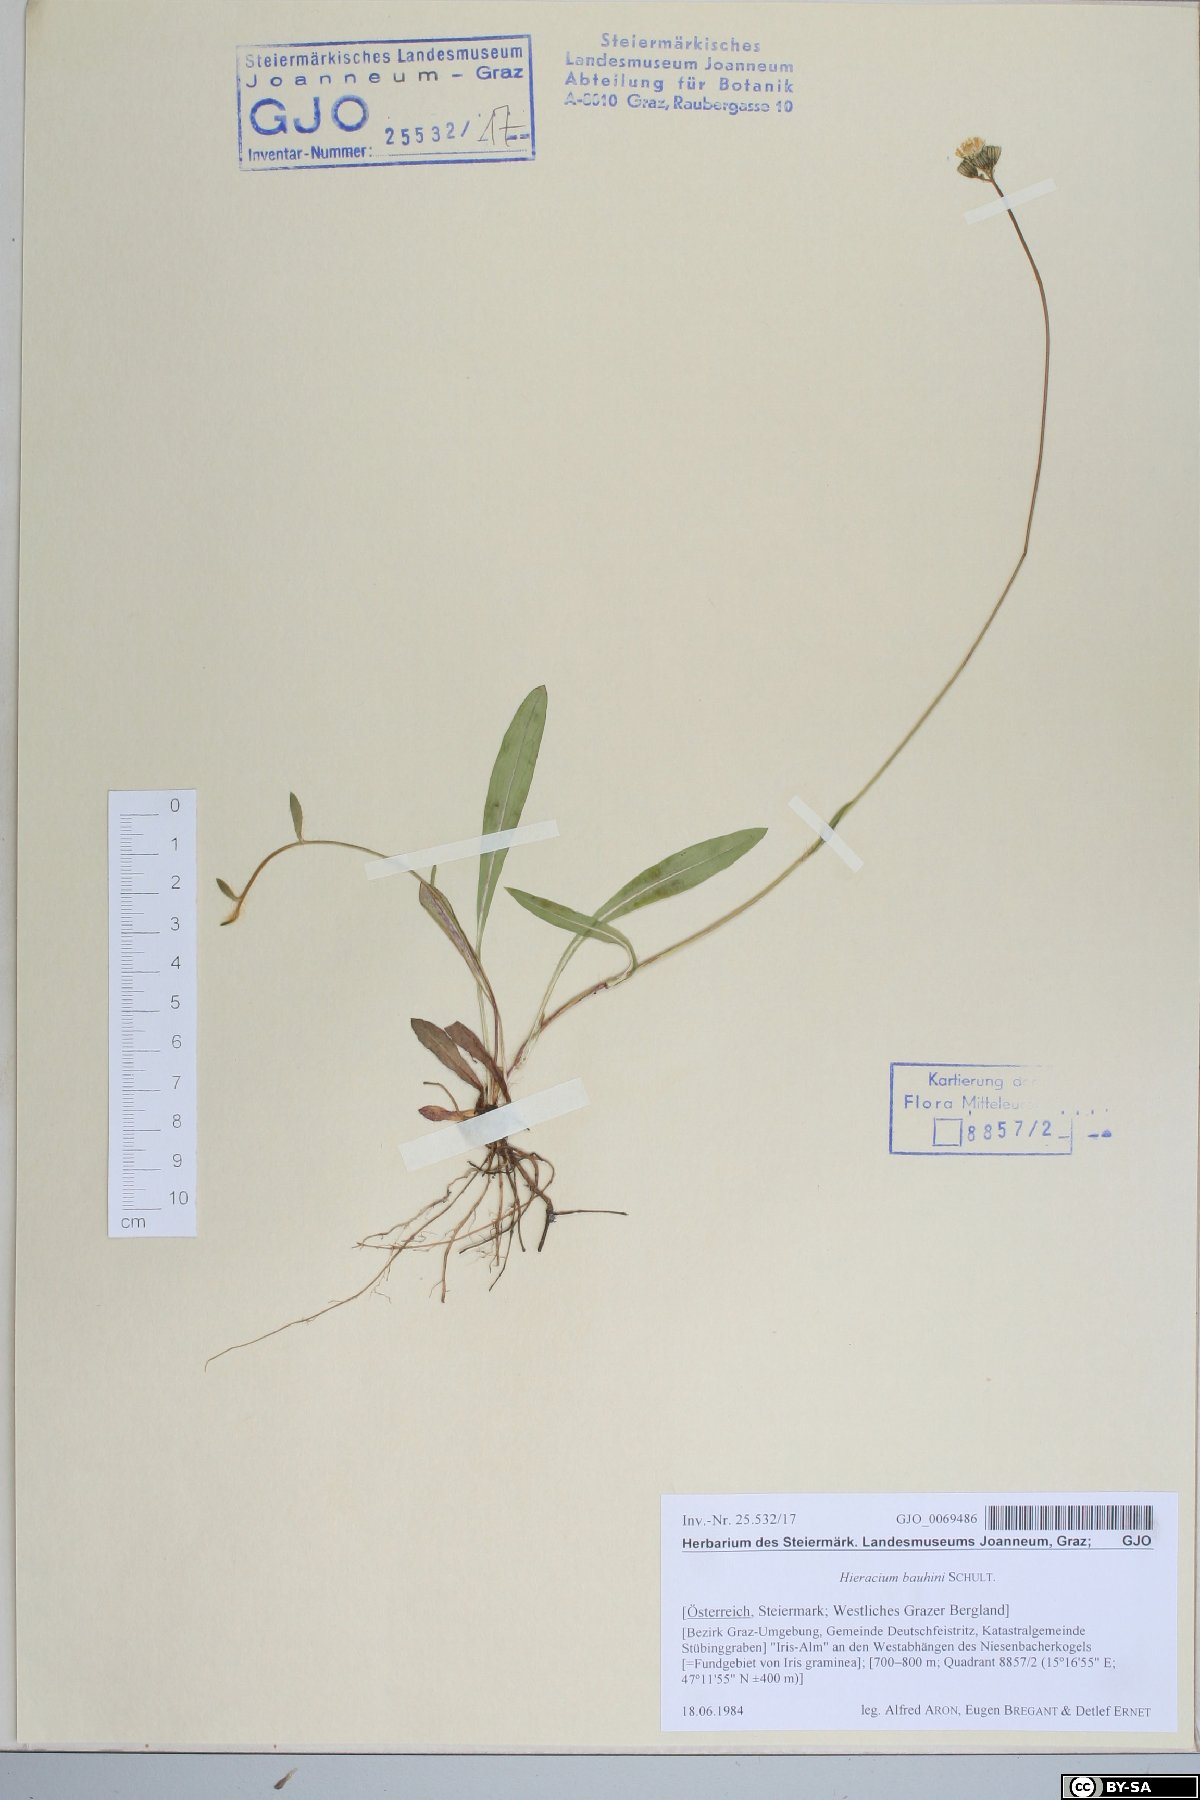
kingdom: Plantae
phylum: Tracheophyta
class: Magnoliopsida
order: Asterales
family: Asteraceae
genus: Pilosella
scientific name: Pilosella bauhini
